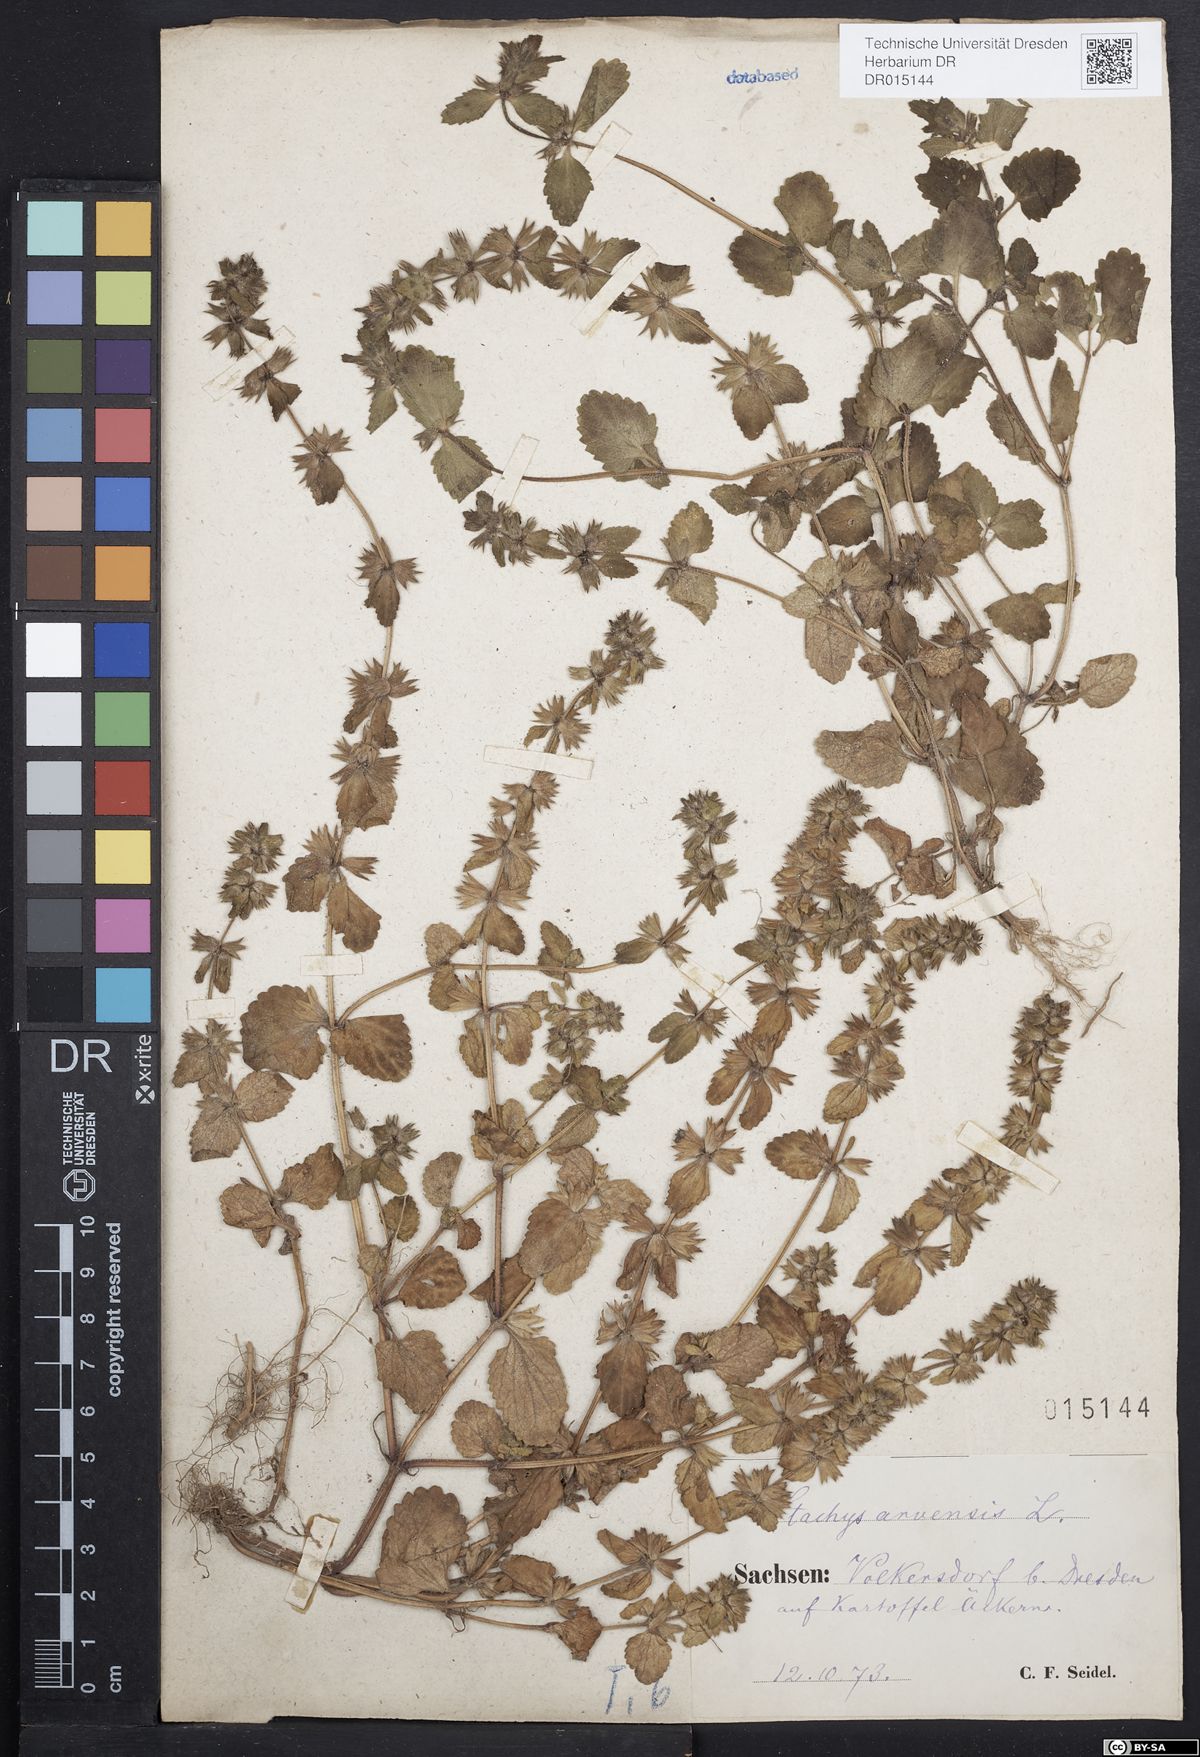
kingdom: Plantae
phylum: Tracheophyta
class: Magnoliopsida
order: Lamiales
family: Lamiaceae
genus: Stachys
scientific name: Stachys arvensis
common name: Field woundwort
